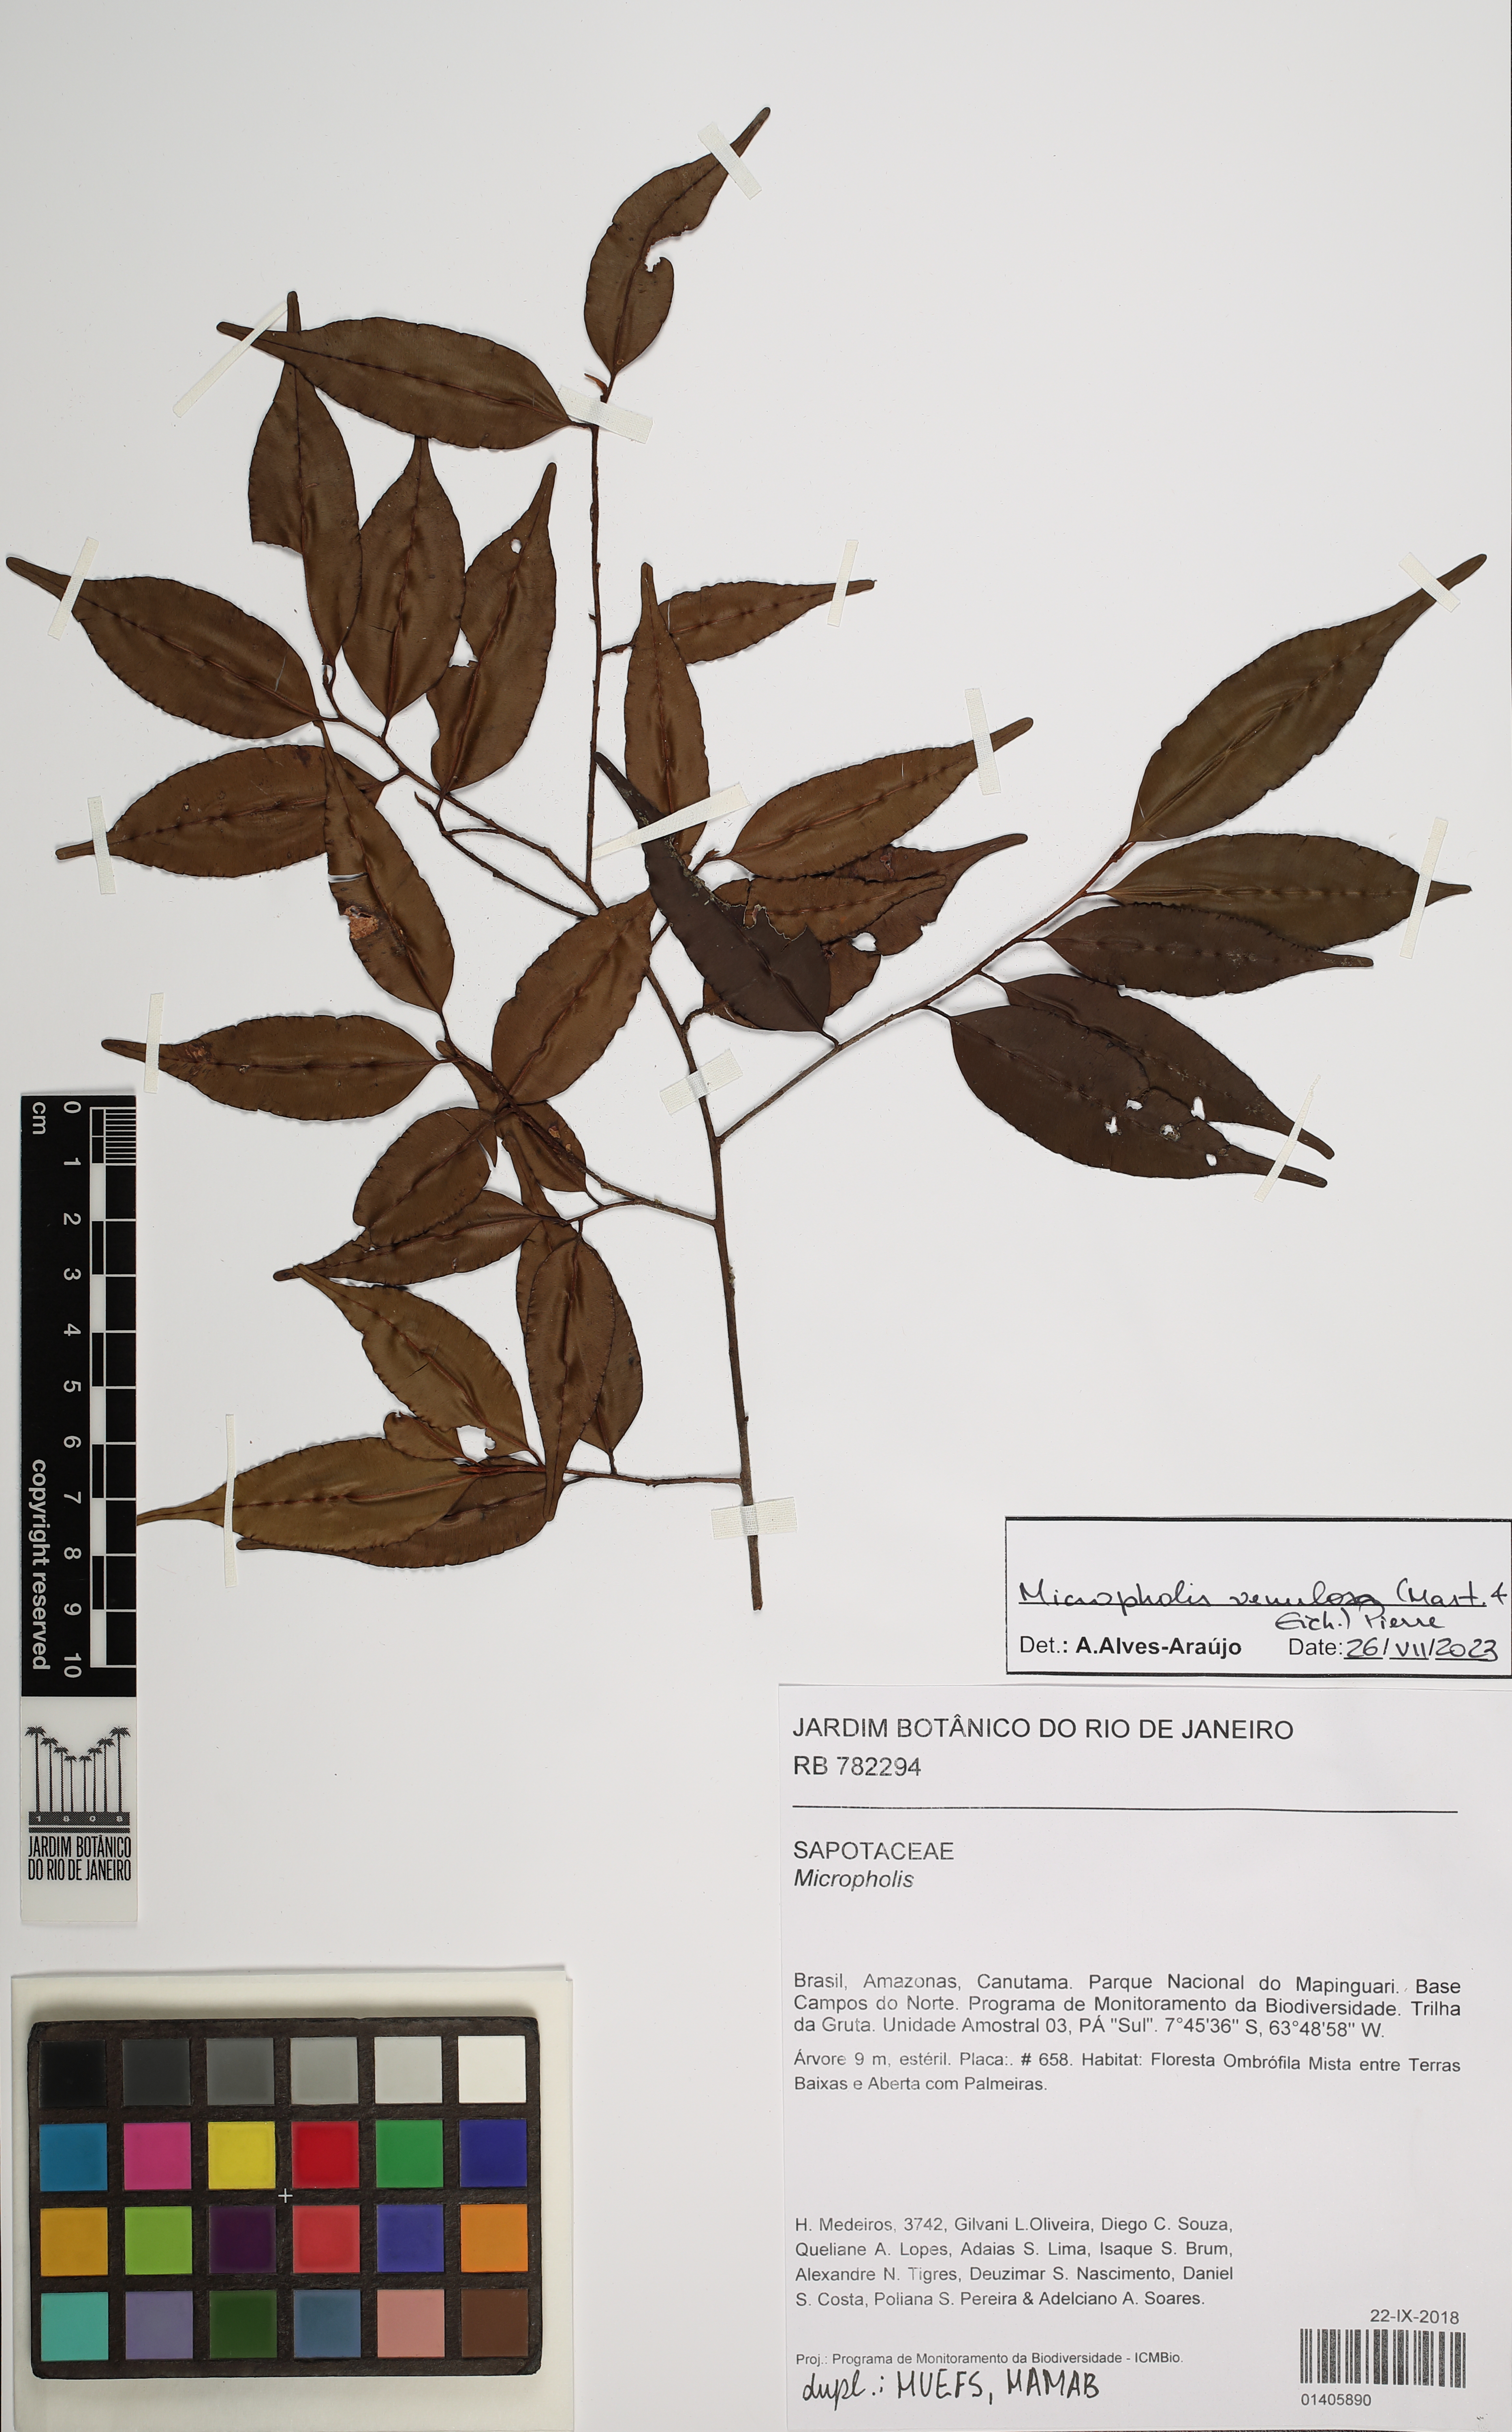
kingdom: Plantae
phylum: Tracheophyta
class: Magnoliopsida
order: Ericales
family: Sapotaceae
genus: Micropholis
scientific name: Micropholis venulosa
